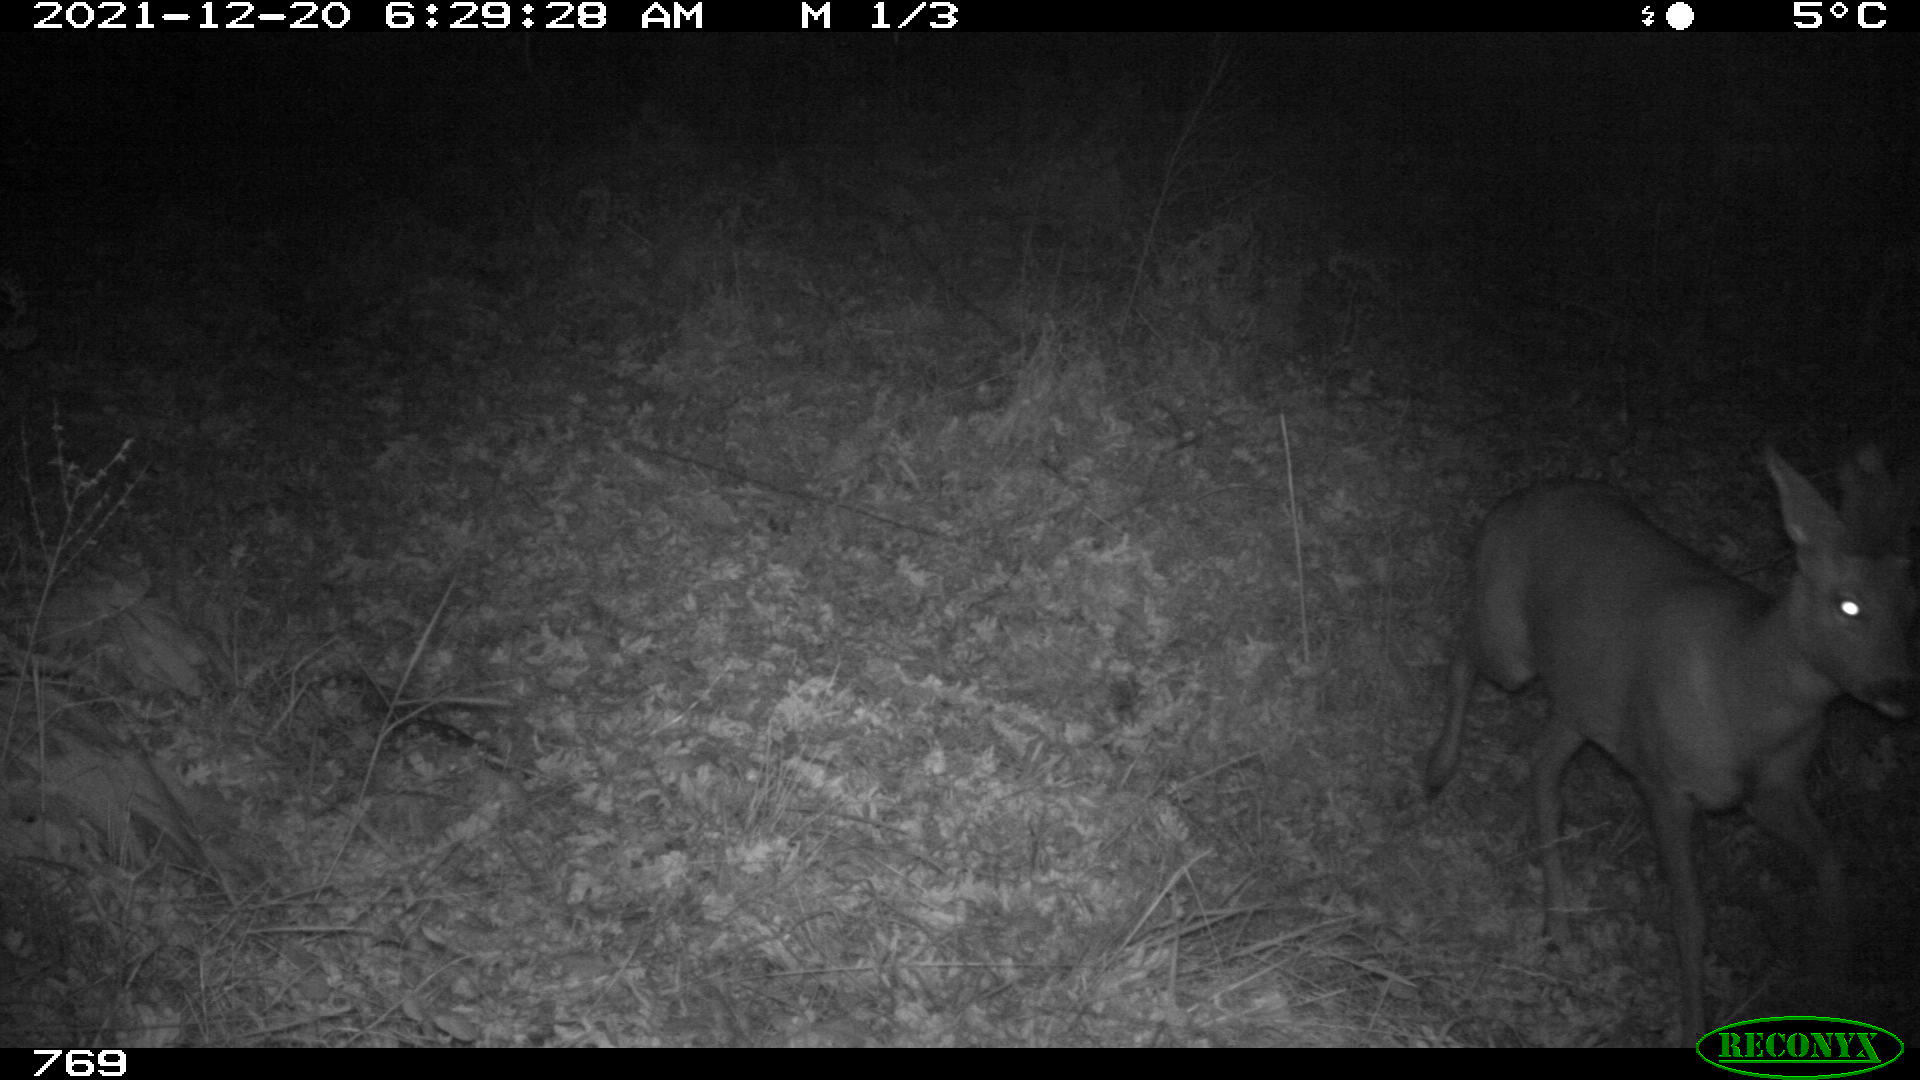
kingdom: Animalia
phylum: Chordata
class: Mammalia
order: Artiodactyla
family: Cervidae
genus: Capreolus
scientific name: Capreolus capreolus
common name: Western roe deer
